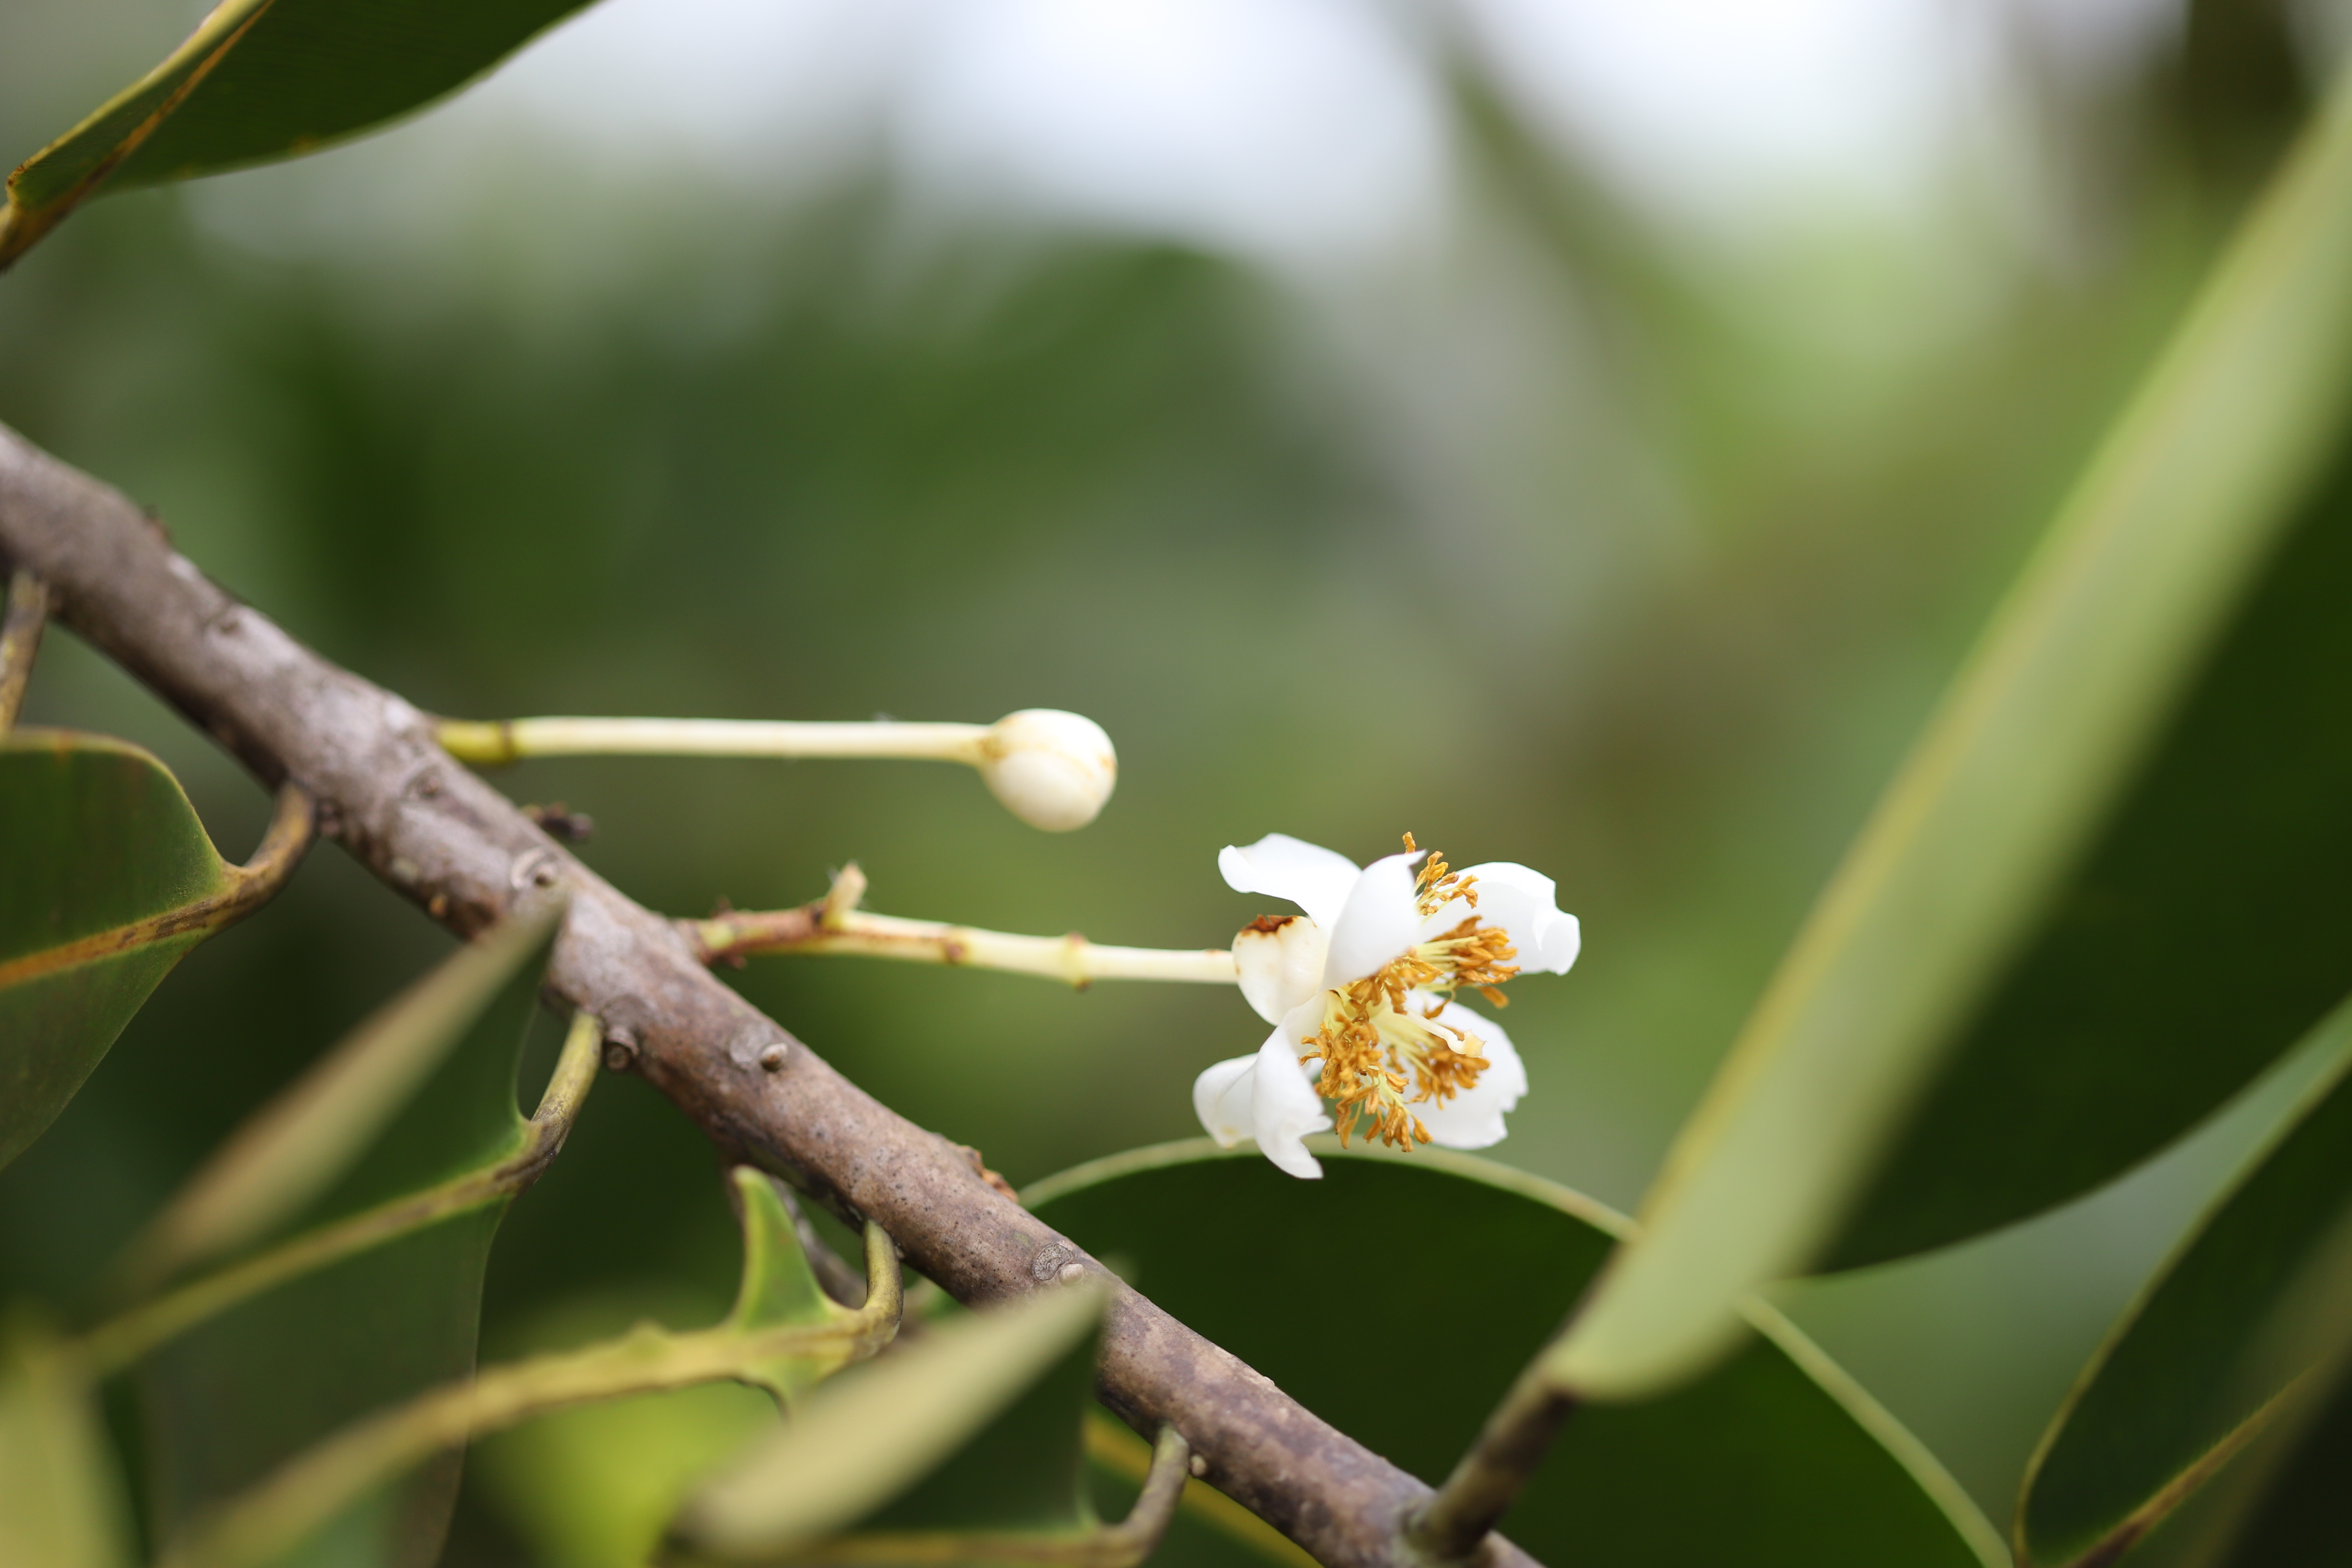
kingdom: Plantae
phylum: Tracheophyta
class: Magnoliopsida
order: Malpighiales
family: Calophyllaceae
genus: Calophyllum
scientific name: Calophyllum inophyllum
